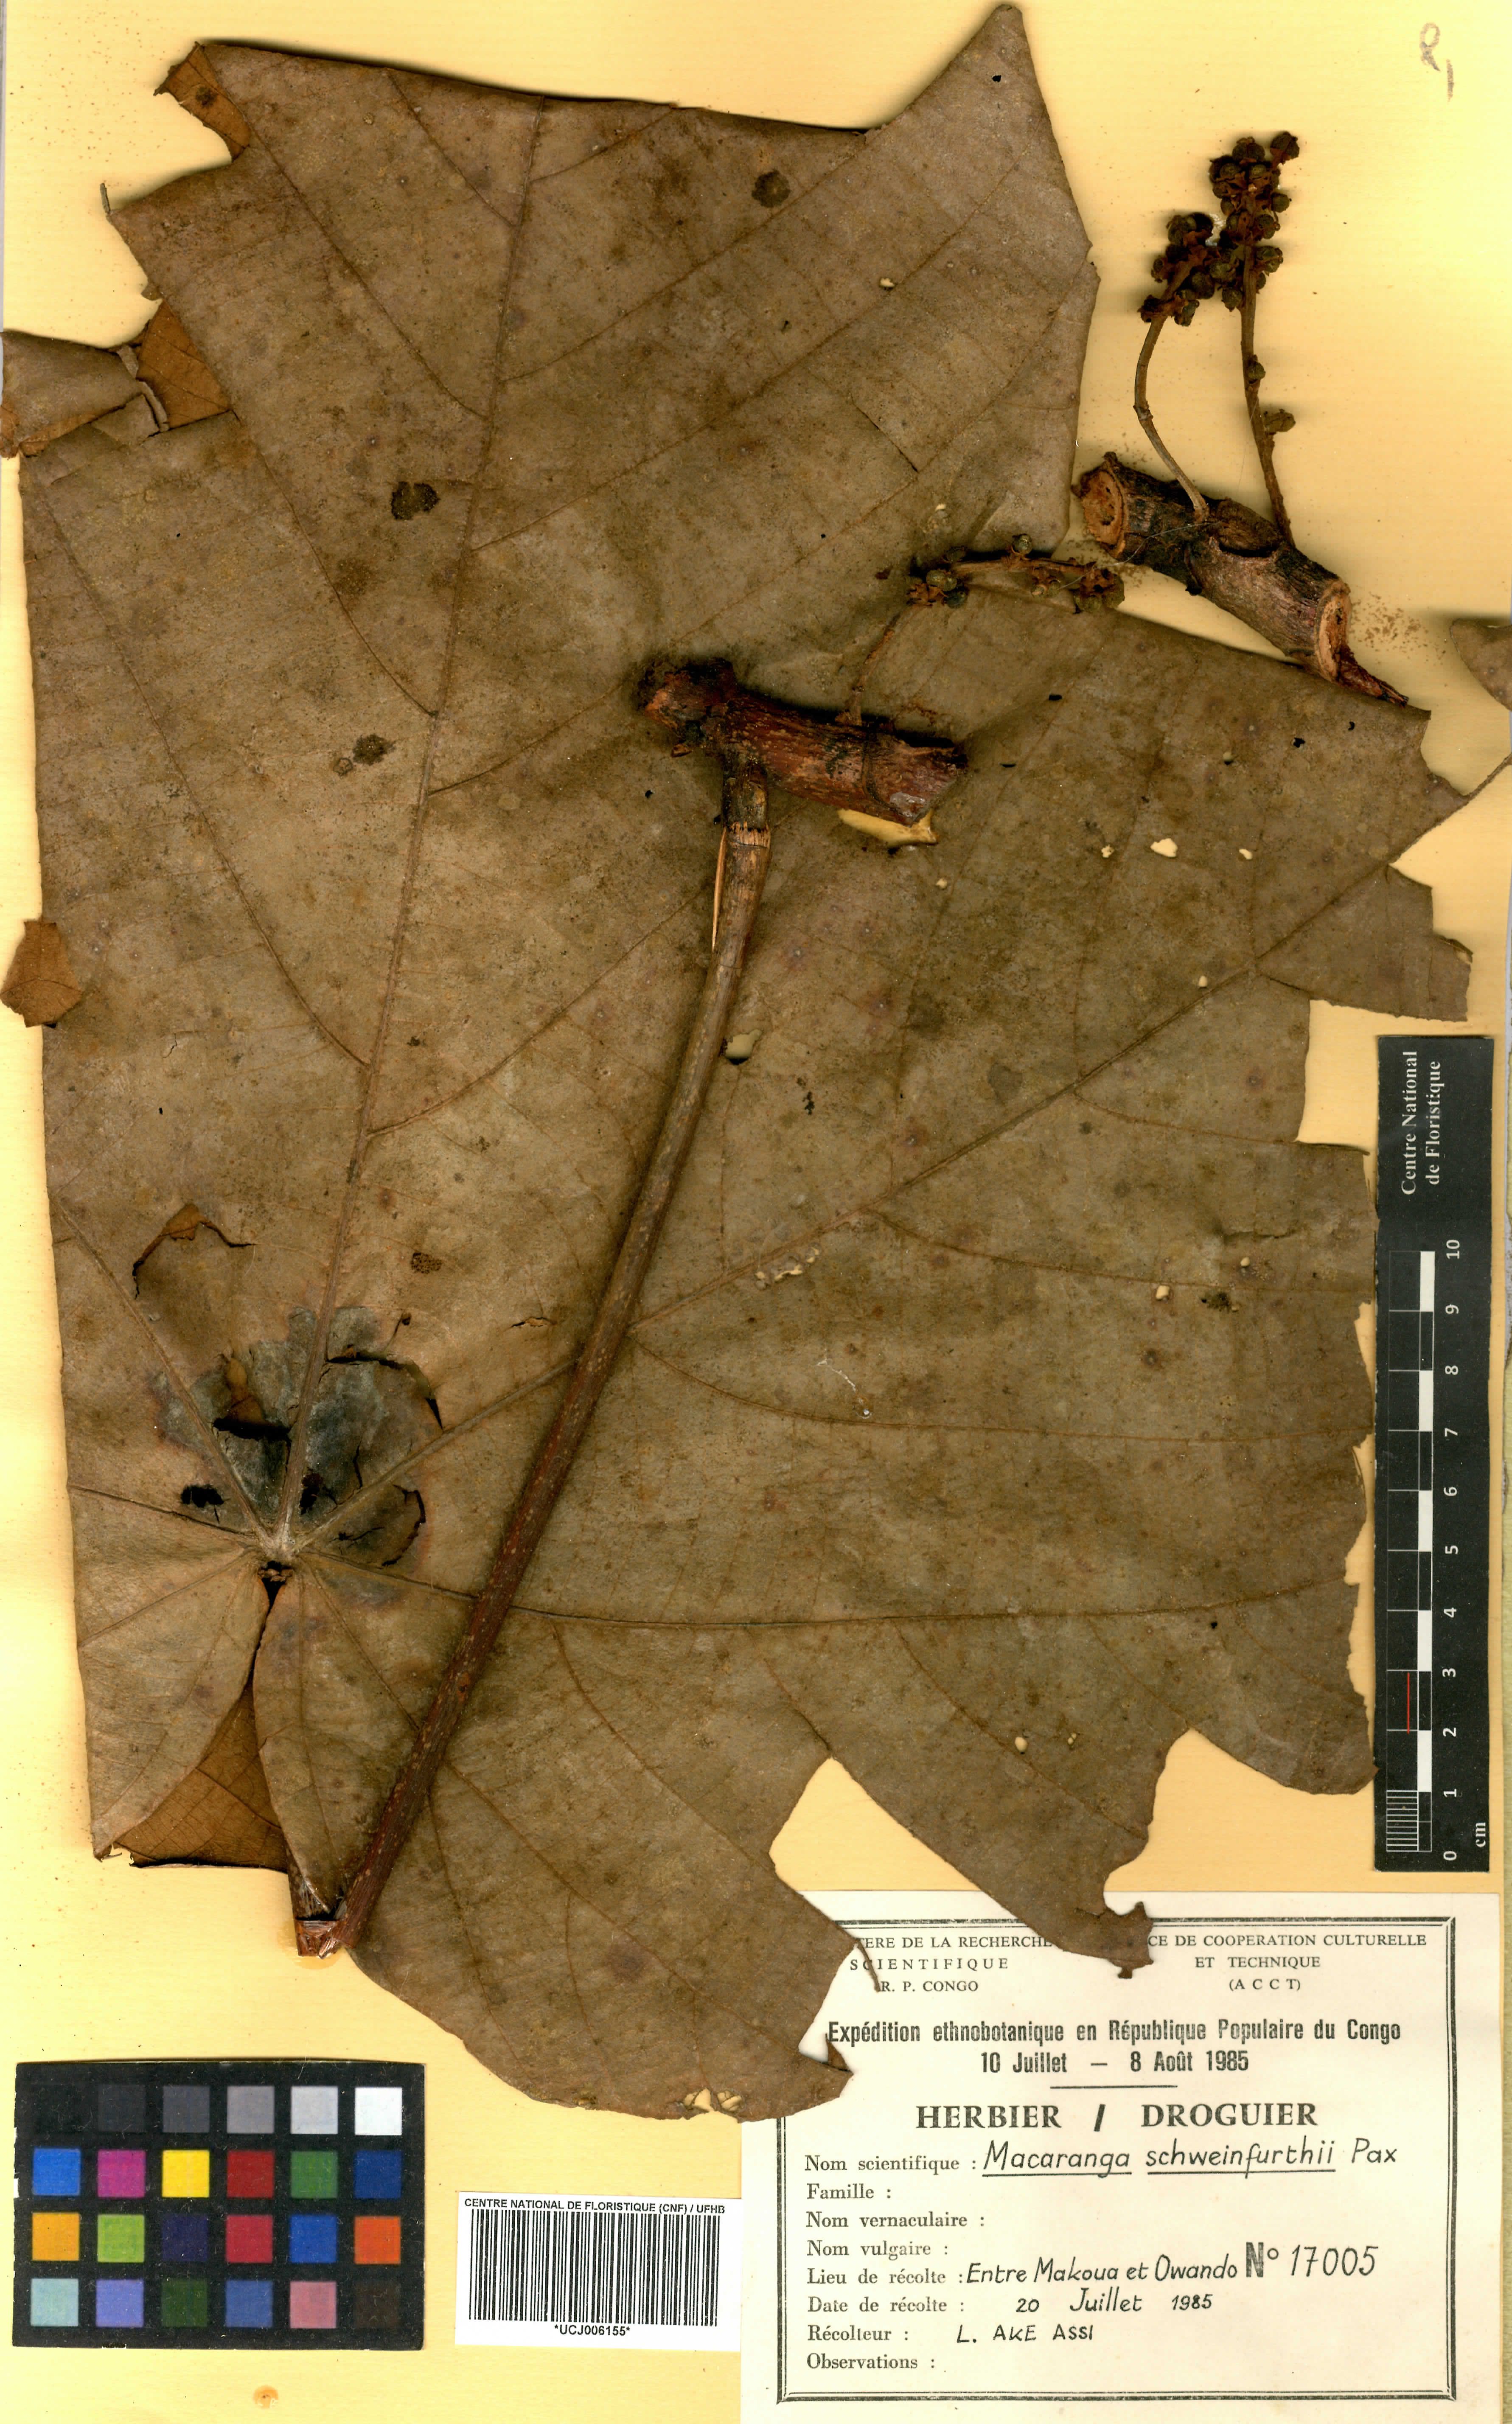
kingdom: Plantae
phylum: Tracheophyta
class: Magnoliopsida
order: Malpighiales
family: Euphorbiaceae
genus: Macaranga
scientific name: Macaranga schweinfurthii
